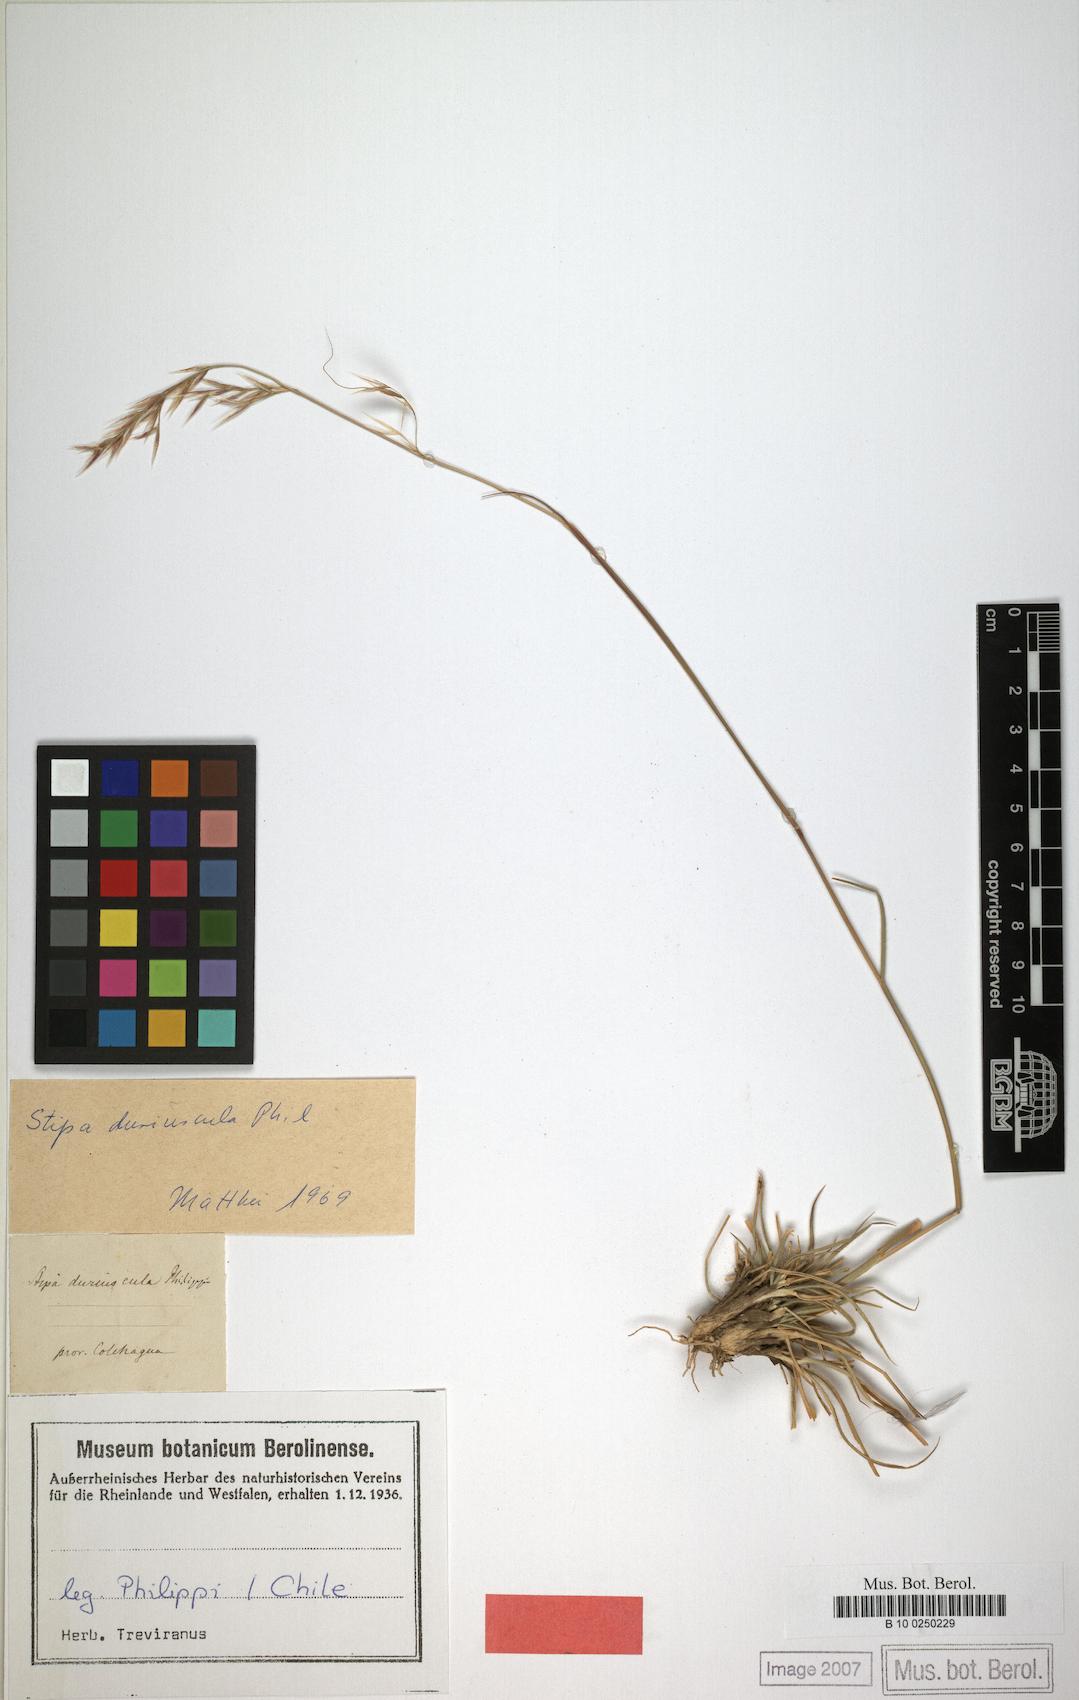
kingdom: Plantae
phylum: Tracheophyta
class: Liliopsida
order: Poales
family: Poaceae
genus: Nassella
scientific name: Nassella duriuscula
